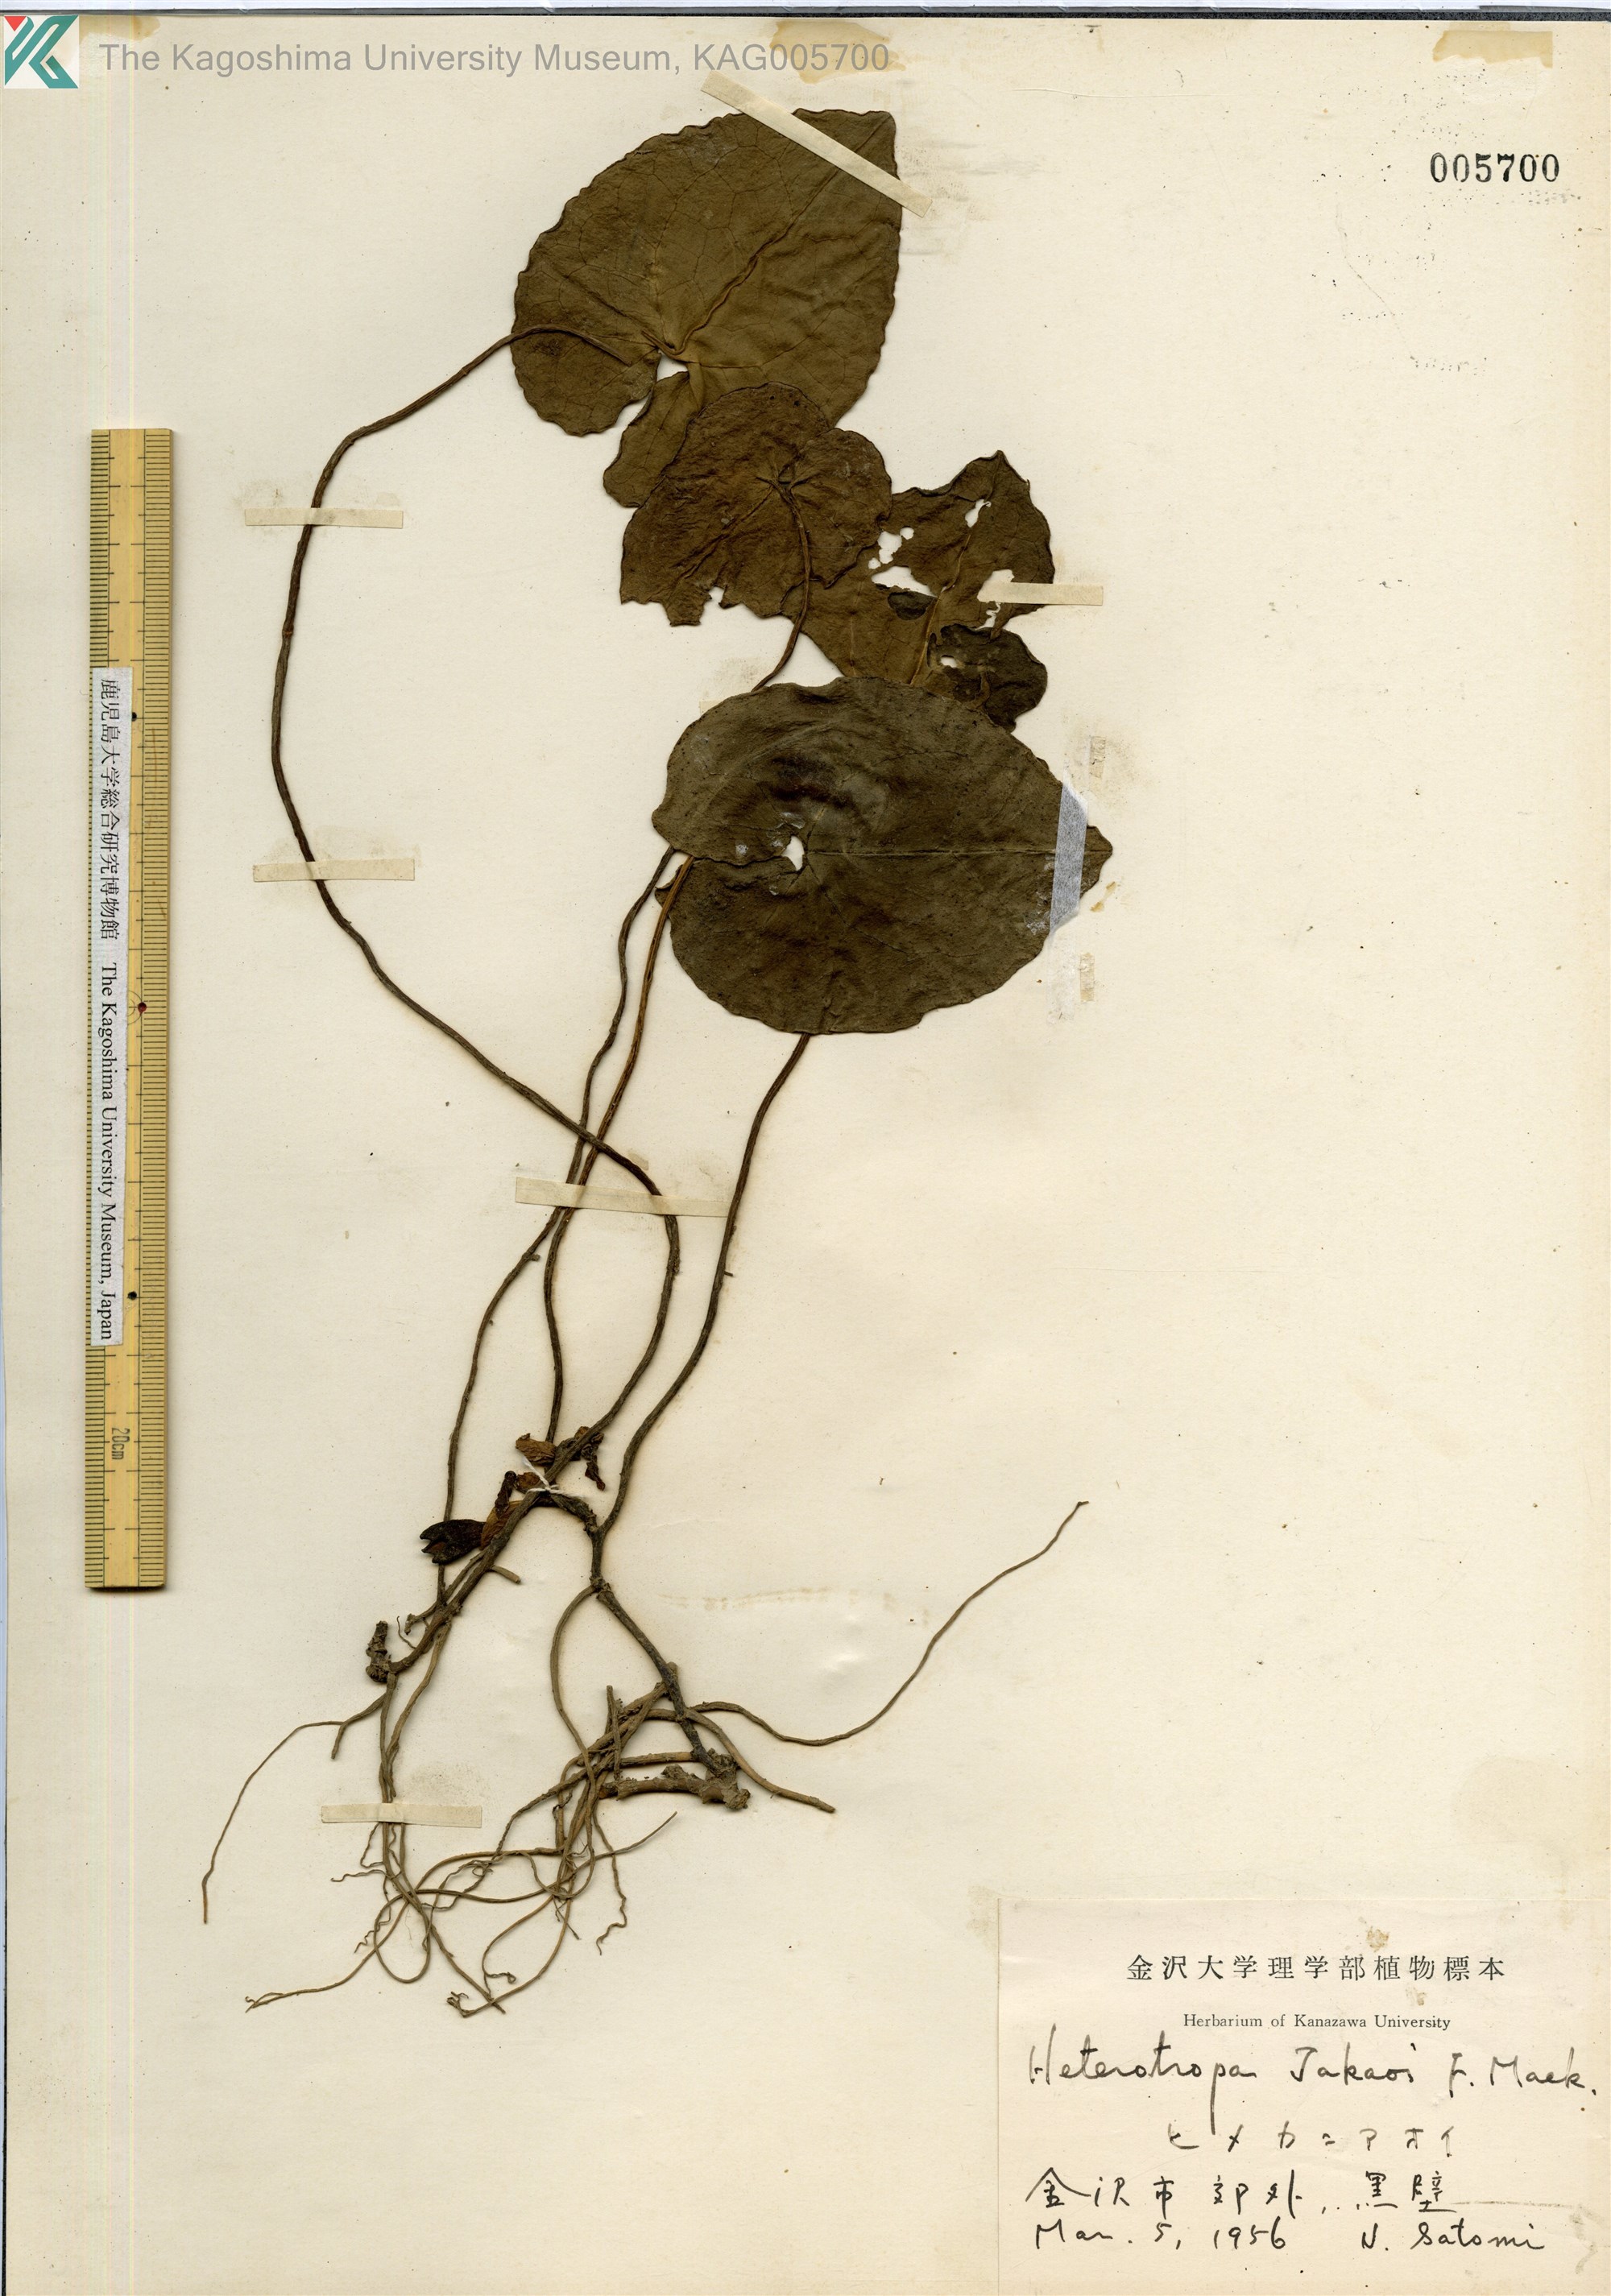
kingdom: Plantae
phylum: Tracheophyta
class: Magnoliopsida
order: Piperales
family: Aristolochiaceae
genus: Asarum
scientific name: Asarum fauriei
